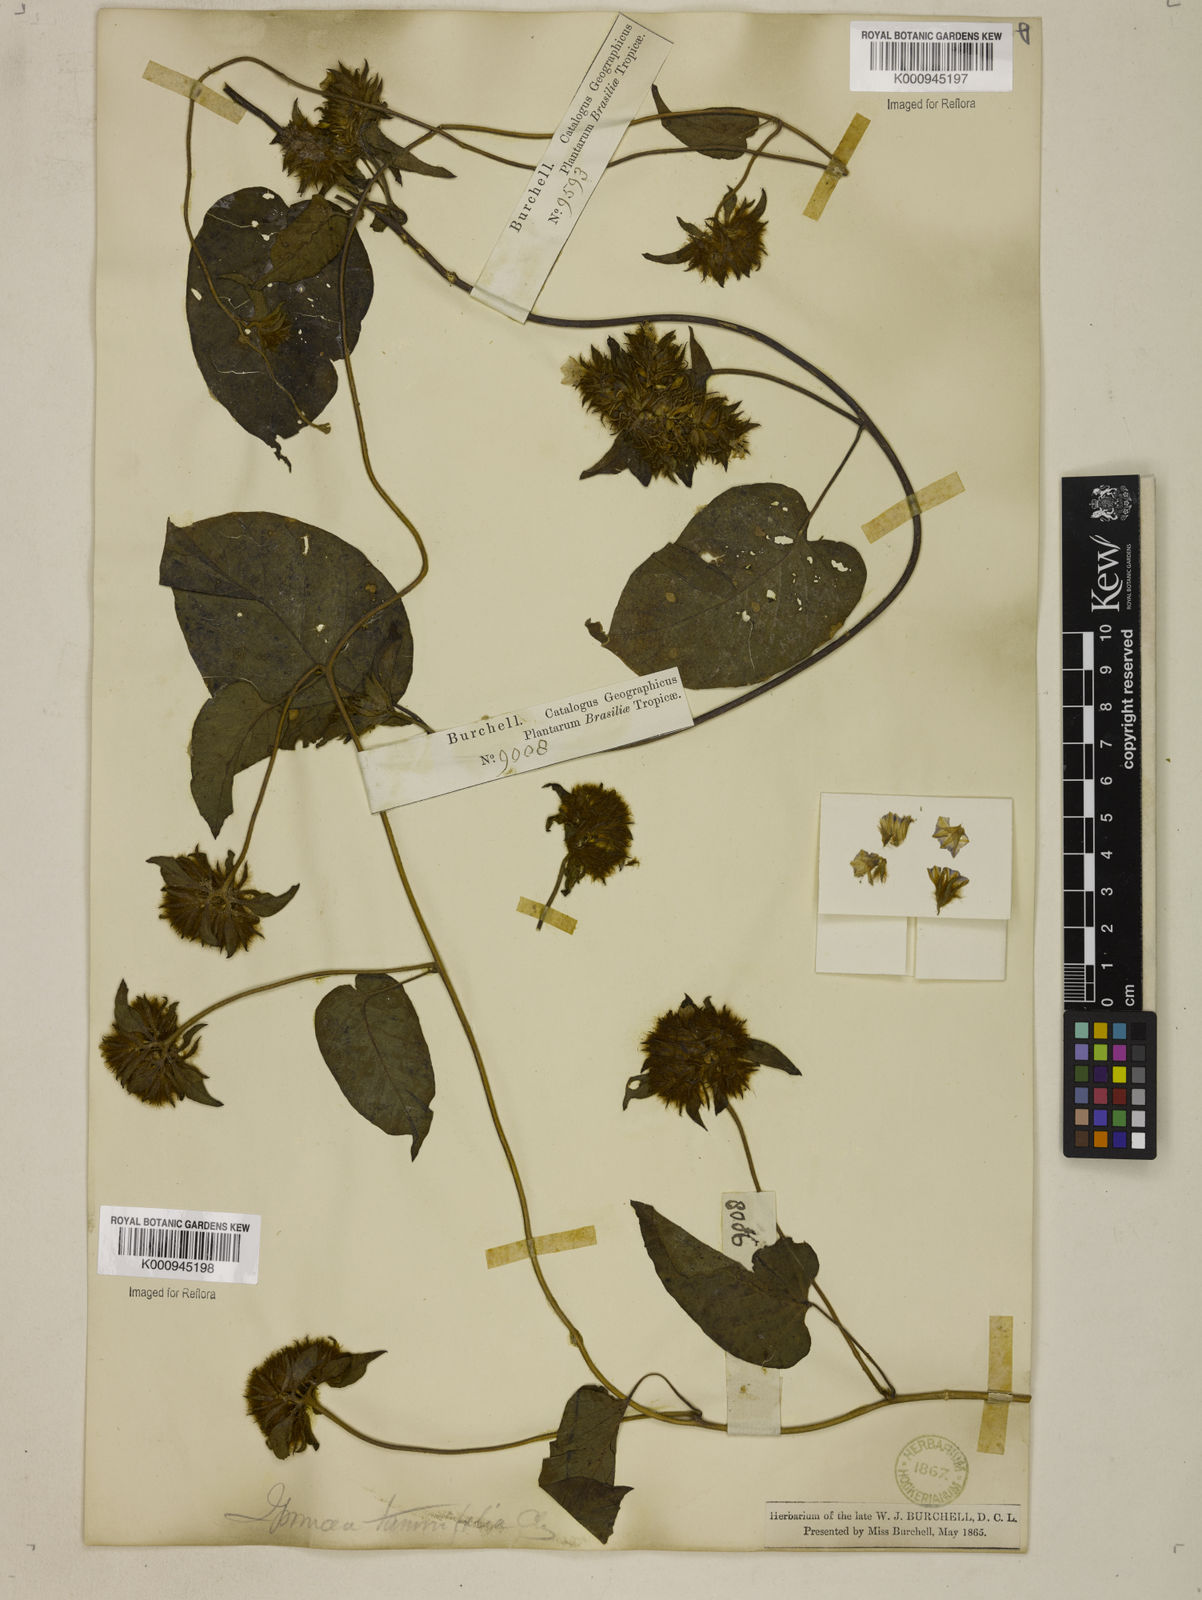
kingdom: Plantae
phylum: Tracheophyta
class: Magnoliopsida
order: Solanales
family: Convolvulaceae
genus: Jacquemontia
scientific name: Jacquemontia tamnifolia
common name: Hairy clustervine
